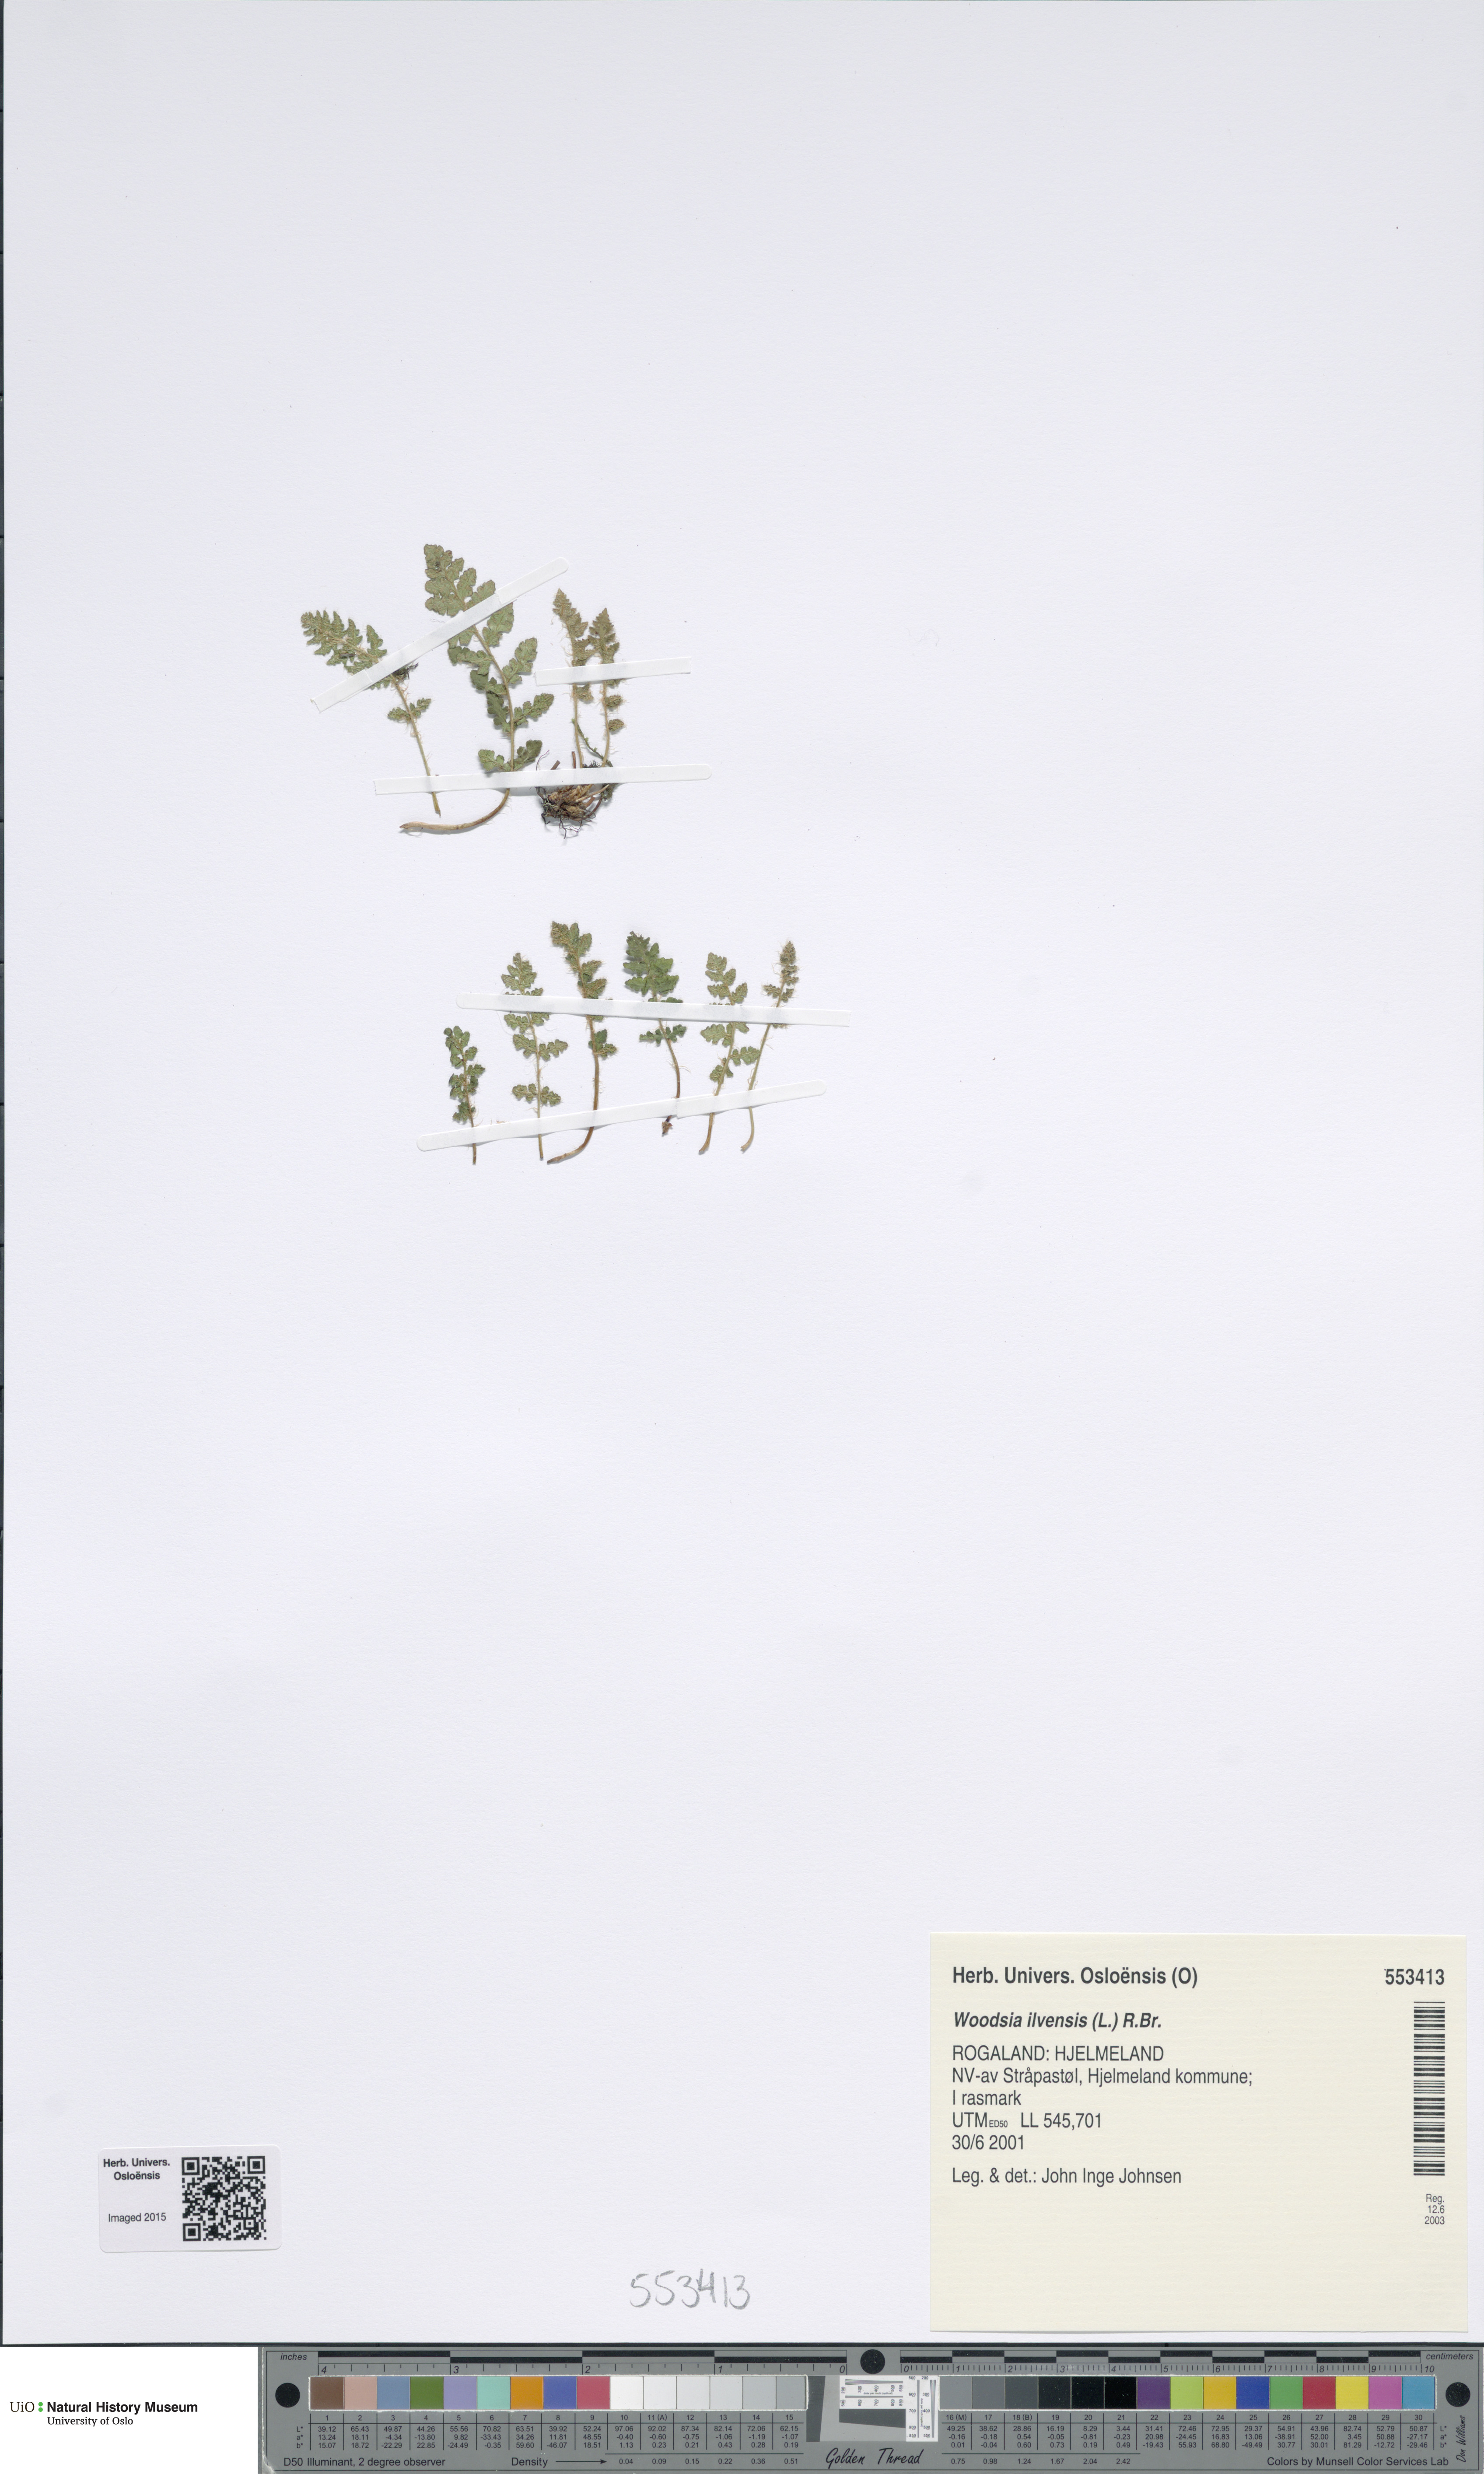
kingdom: Plantae
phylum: Tracheophyta
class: Polypodiopsida
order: Polypodiales
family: Woodsiaceae
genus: Woodsia
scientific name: Woodsia ilvensis
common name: Fragrant woodsia
